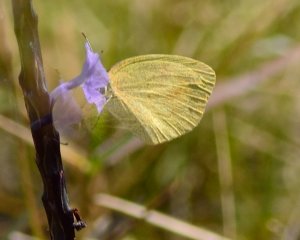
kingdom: Animalia
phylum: Arthropoda
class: Insecta
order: Lepidoptera
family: Pieridae
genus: Eurema
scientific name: Eurema daira
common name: Barred Yellow
